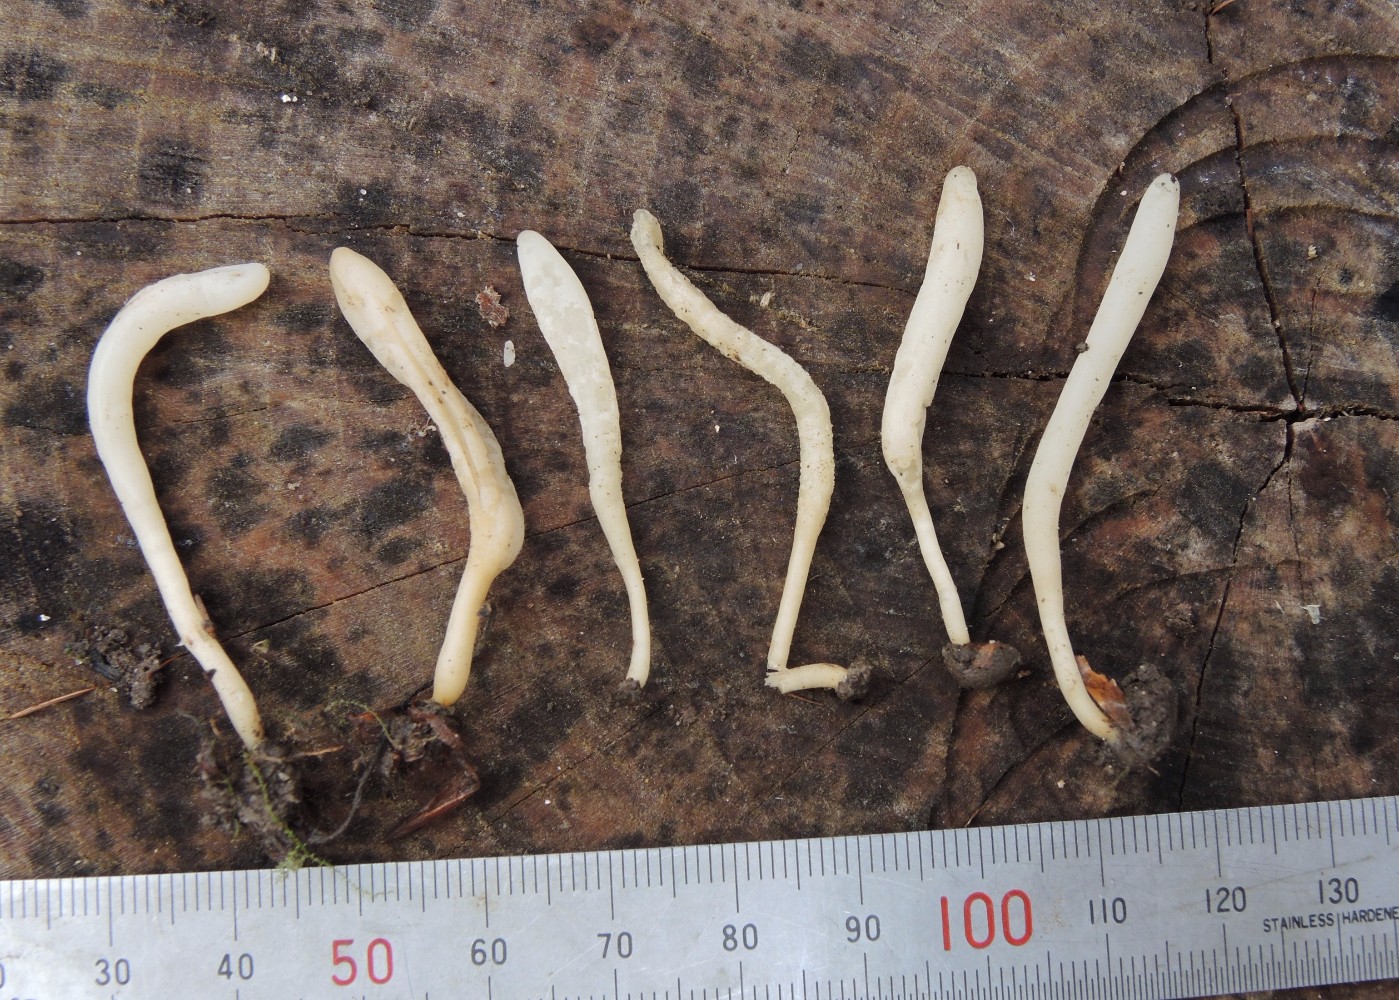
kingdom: Fungi
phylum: Basidiomycota
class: Agaricomycetes
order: Agaricales
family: Clavariaceae
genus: Clavaria
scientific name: Clavaria falcata
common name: hvid køllesvamp
